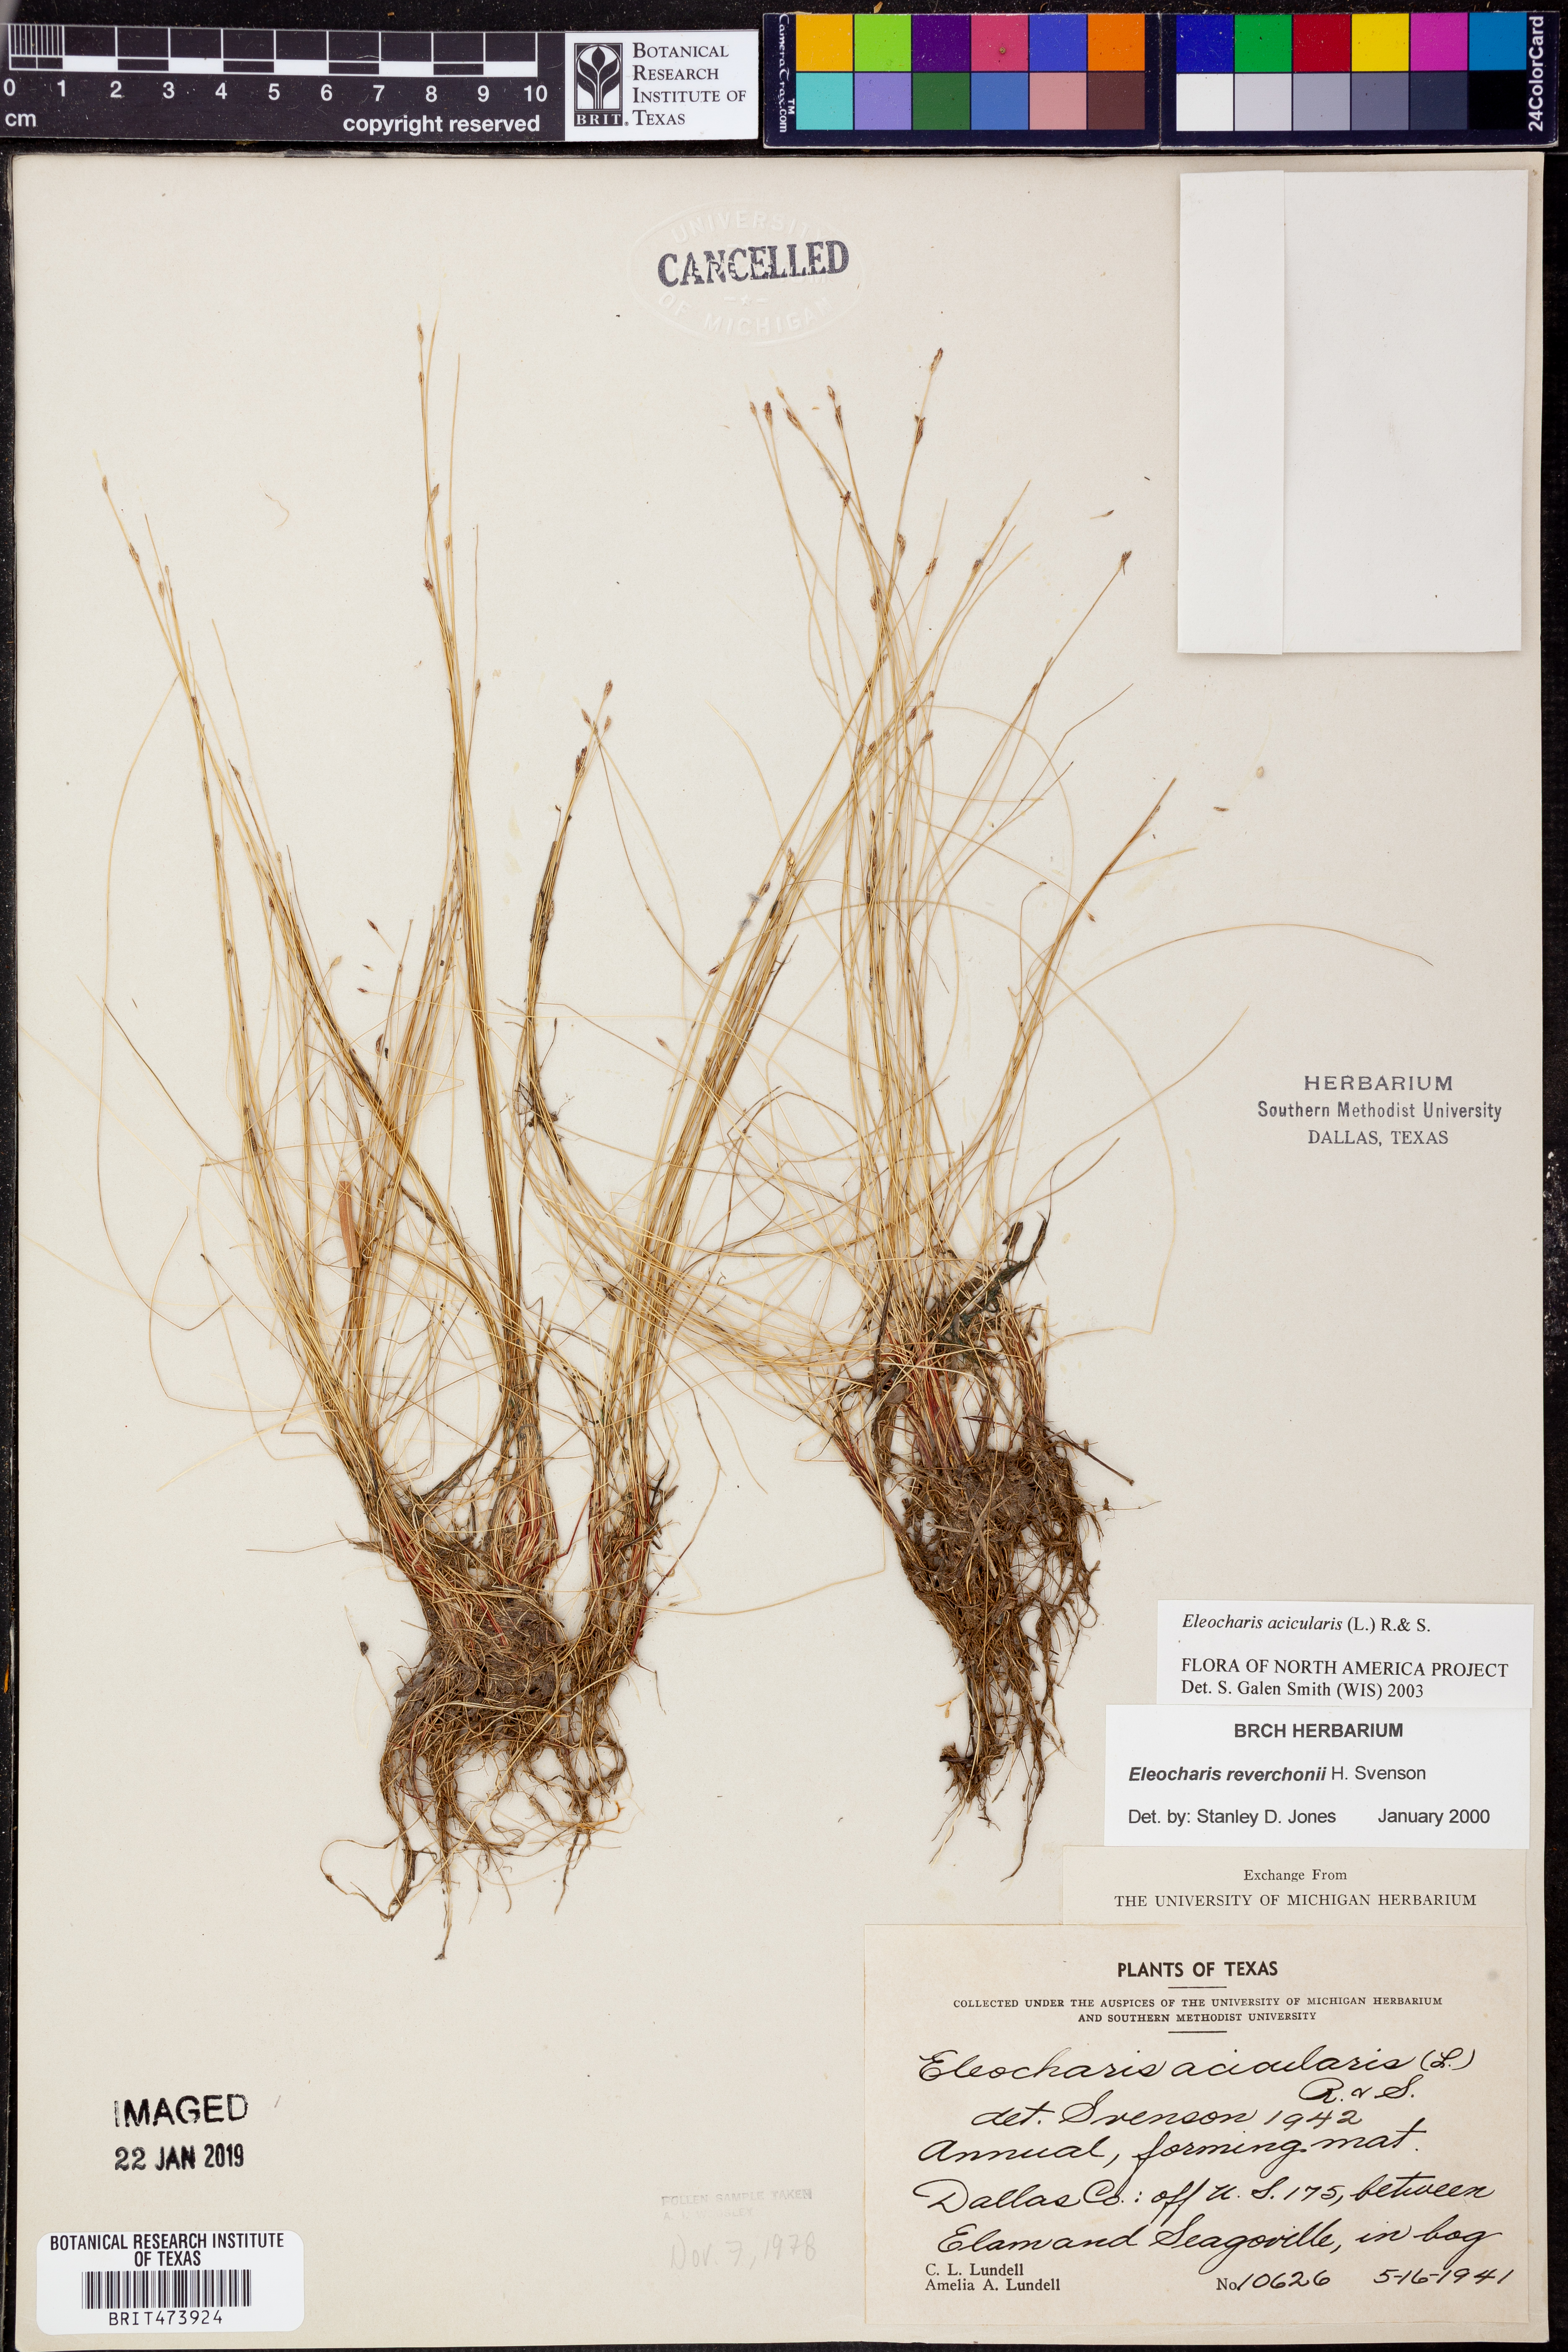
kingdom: Plantae
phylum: Tracheophyta
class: Liliopsida
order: Poales
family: Cyperaceae
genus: Eleocharis
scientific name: Eleocharis acicularis
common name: Needle spike-rush
